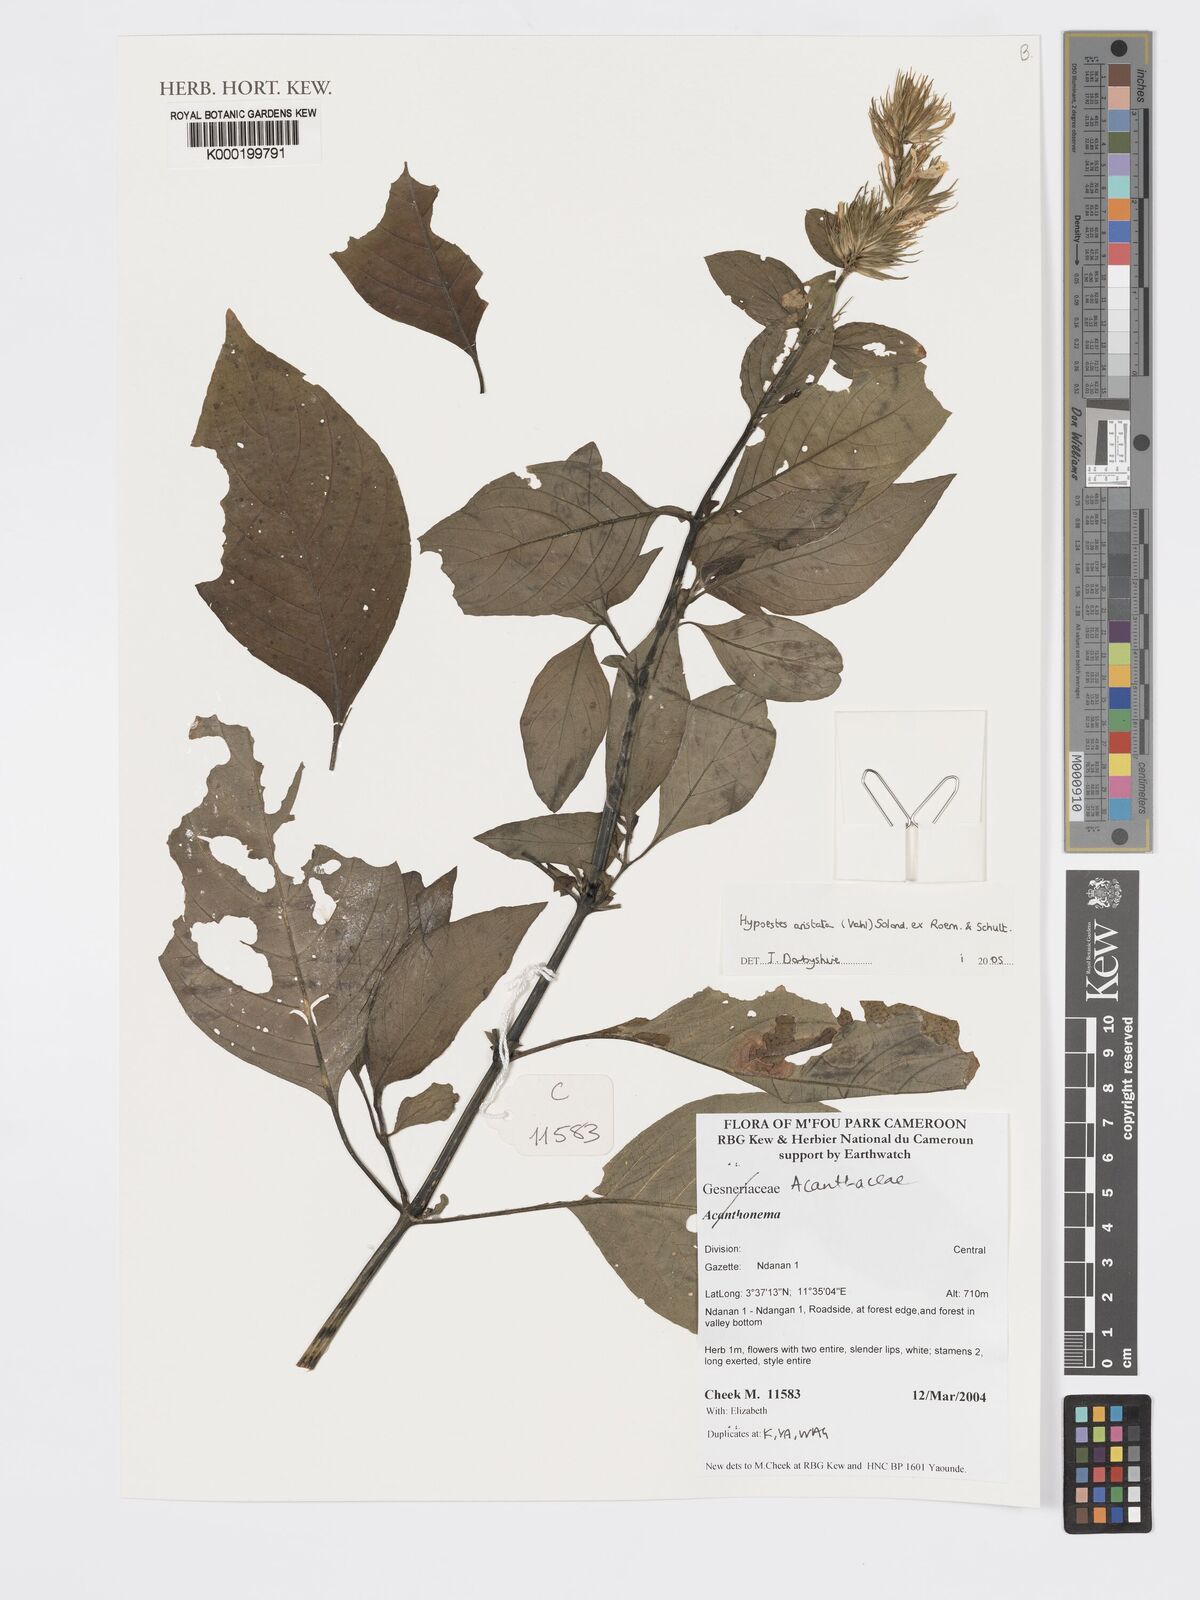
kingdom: Plantae
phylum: Tracheophyta
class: Magnoliopsida
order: Lamiales
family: Acanthaceae
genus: Hypoestes
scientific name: Hypoestes aristata
